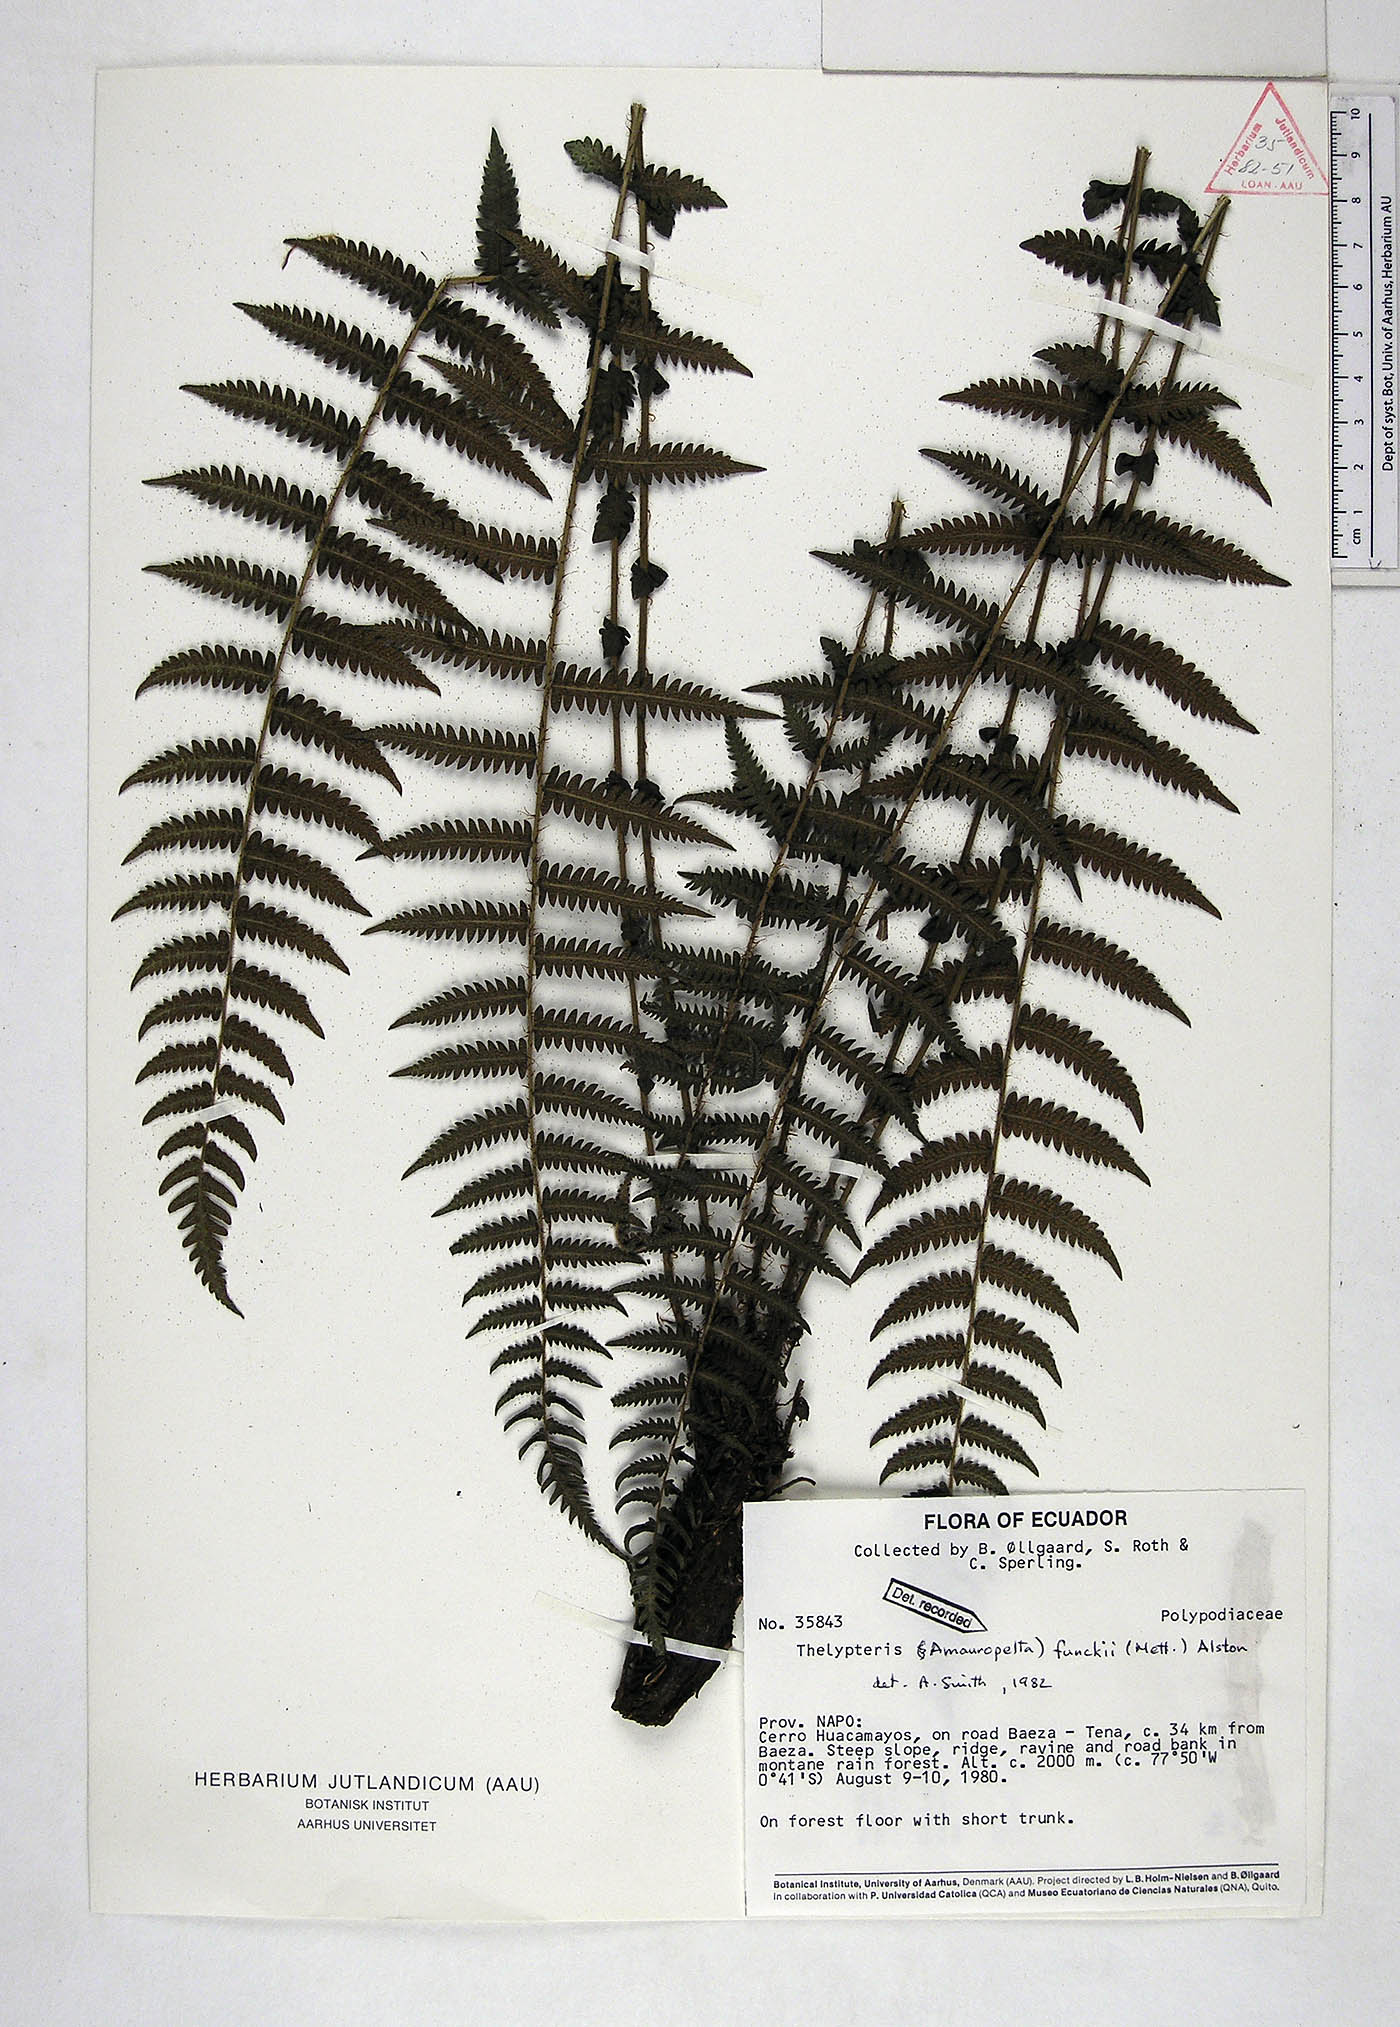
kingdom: Plantae
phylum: Tracheophyta
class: Polypodiopsida
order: Polypodiales
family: Thelypteridaceae
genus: Amauropelta
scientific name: Amauropelta funckii
